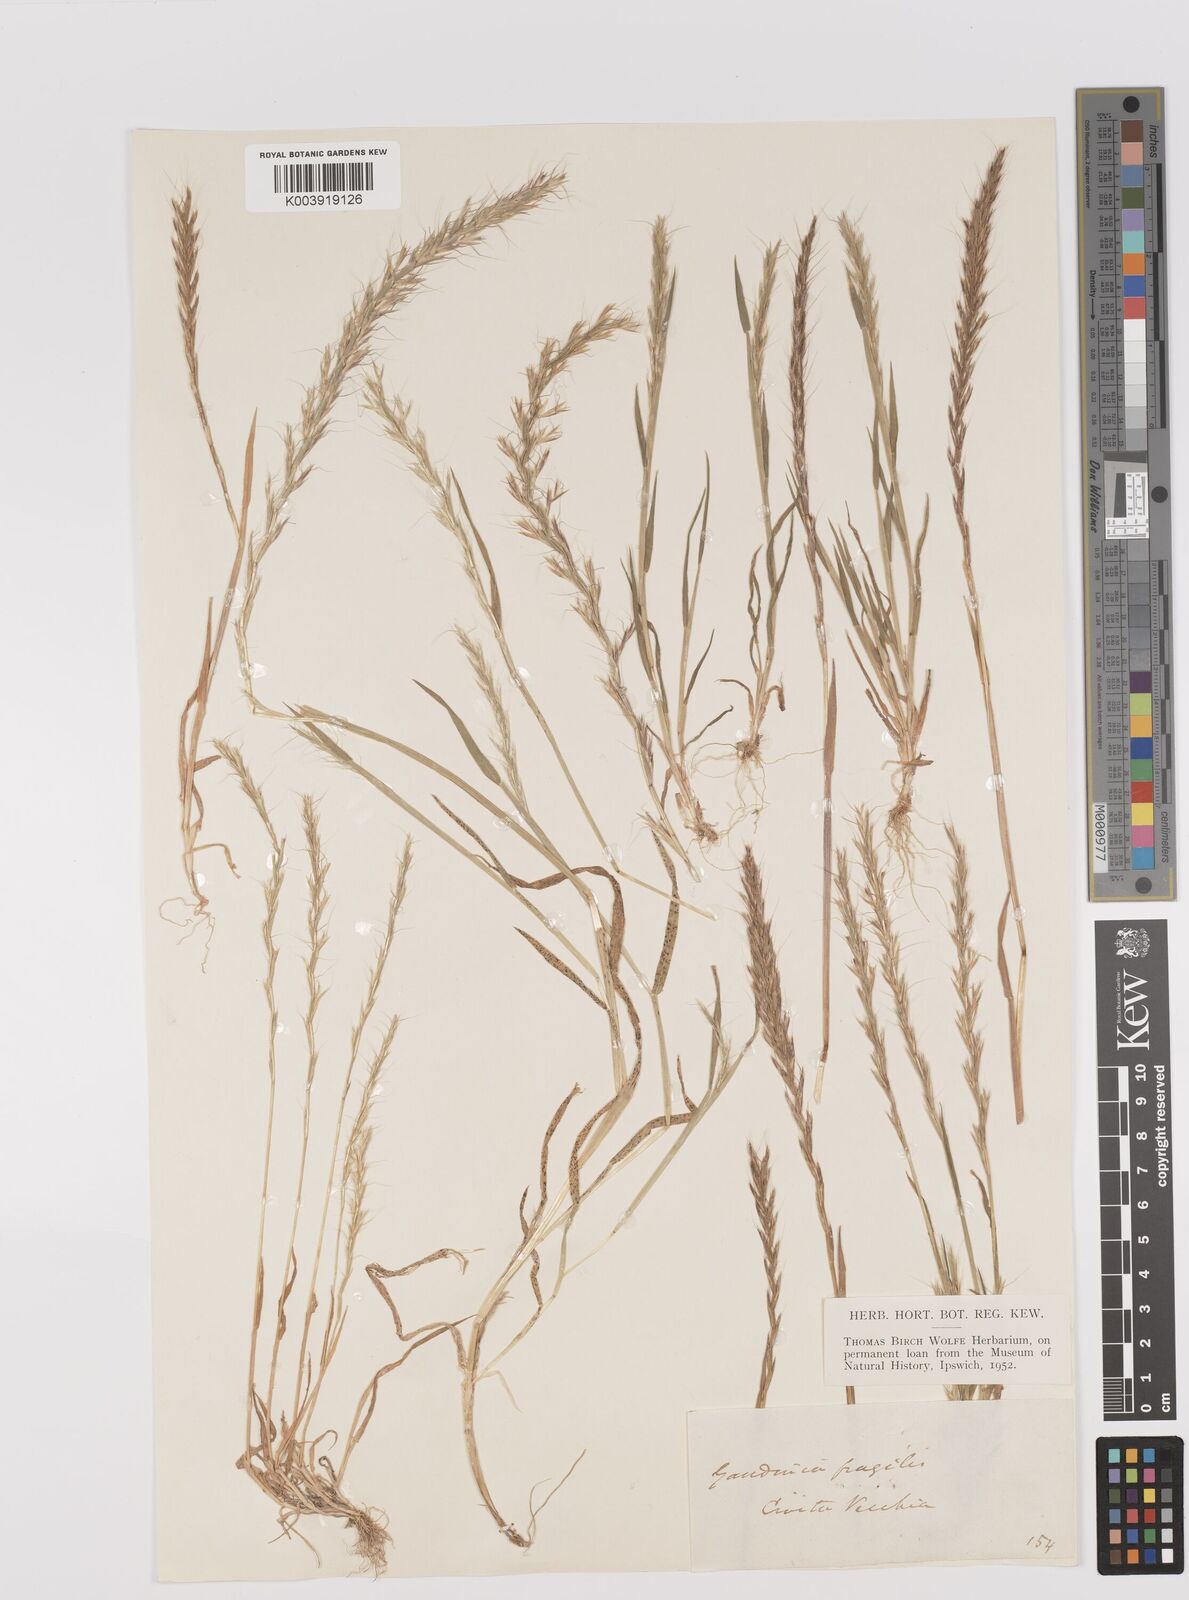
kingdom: Plantae
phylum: Tracheophyta
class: Liliopsida
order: Poales
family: Poaceae
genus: Gaudinia
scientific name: Gaudinia fragilis
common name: French oat-grass
